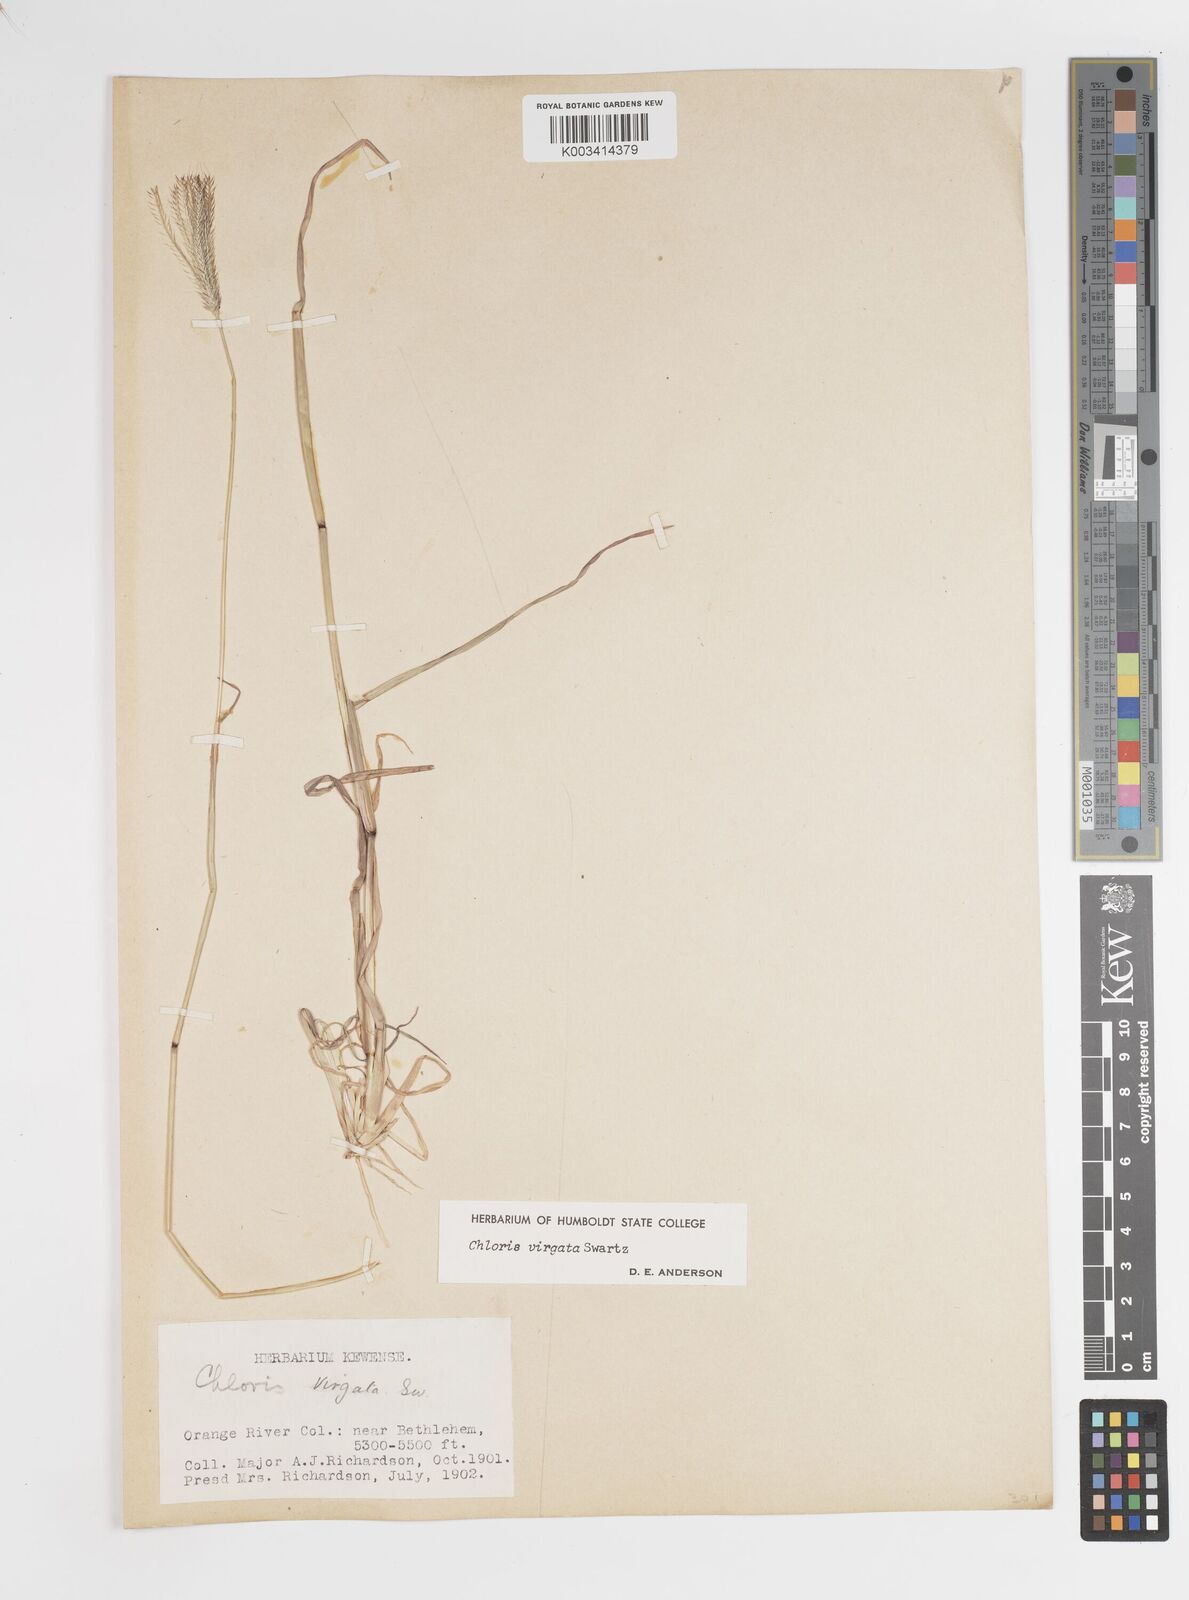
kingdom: Plantae
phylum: Tracheophyta
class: Liliopsida
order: Poales
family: Poaceae
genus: Chloris
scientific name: Chloris virgata
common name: Feathery rhodes-grass
